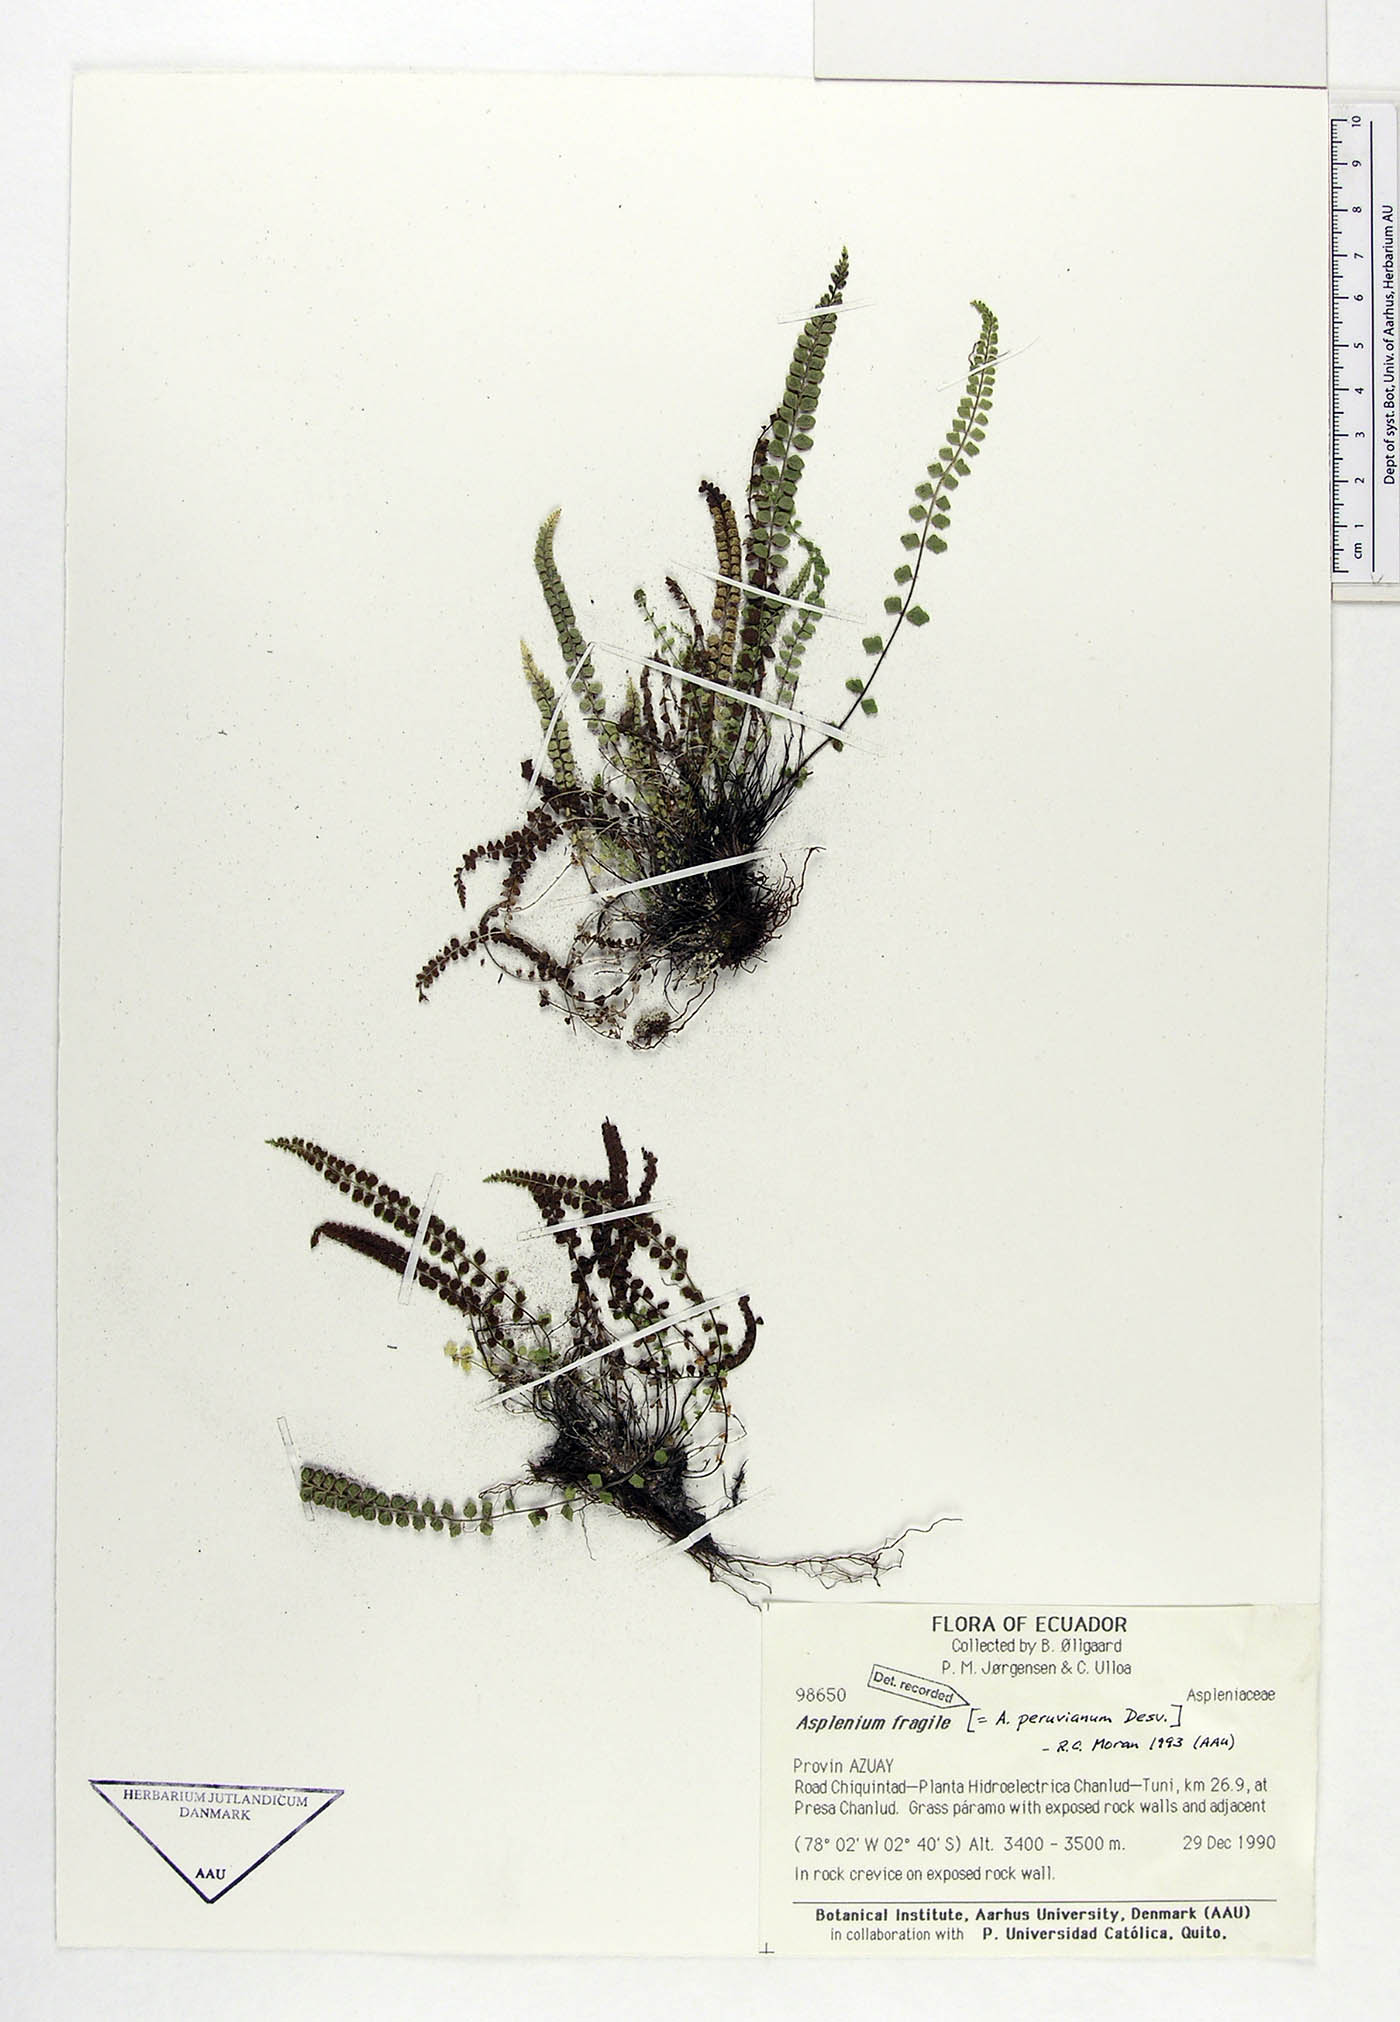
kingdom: Plantae
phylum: Tracheophyta
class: Polypodiopsida
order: Polypodiales
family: Aspleniaceae
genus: Asplenium
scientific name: Asplenium peruvianum
